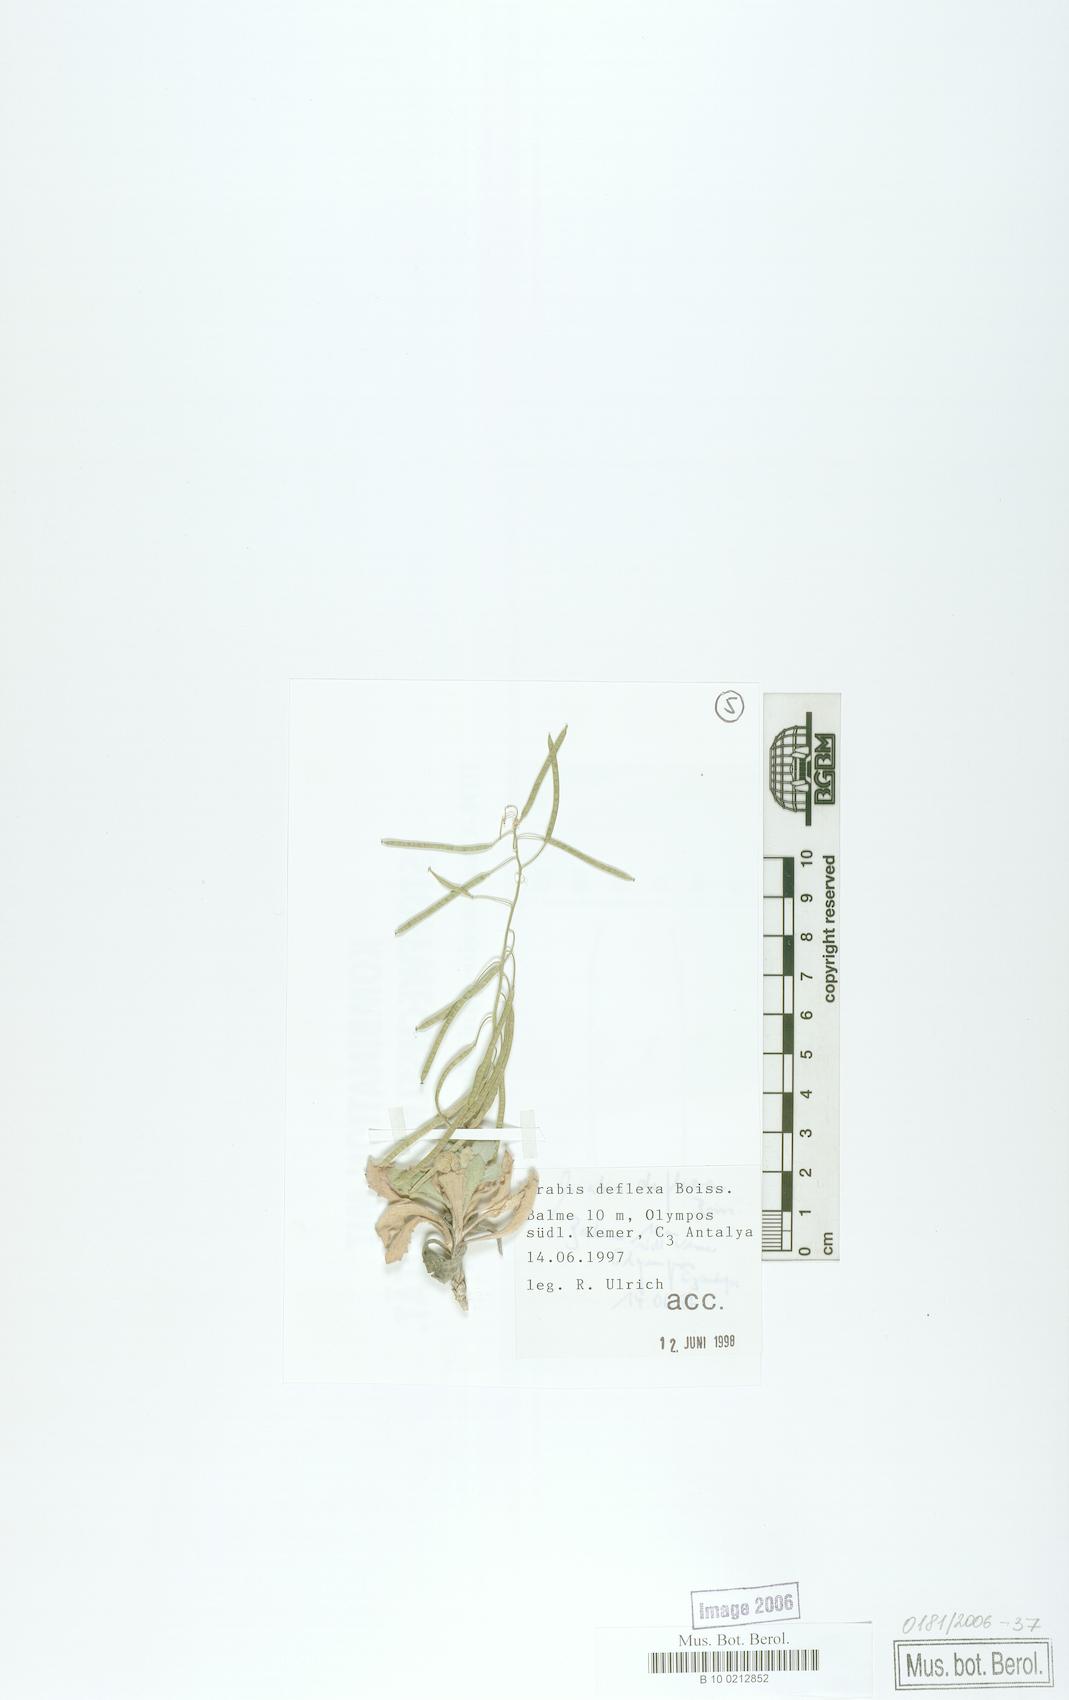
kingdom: Plantae
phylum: Tracheophyta
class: Magnoliopsida
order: Brassicales
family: Brassicaceae
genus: Arabis
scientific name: Arabis deflexa
